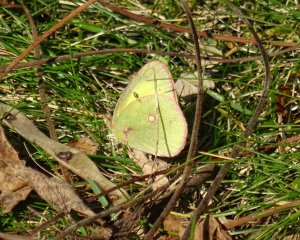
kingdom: Animalia
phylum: Arthropoda
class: Insecta
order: Lepidoptera
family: Pieridae
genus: Colias
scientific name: Colias philodice
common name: Clouded Sulphur
